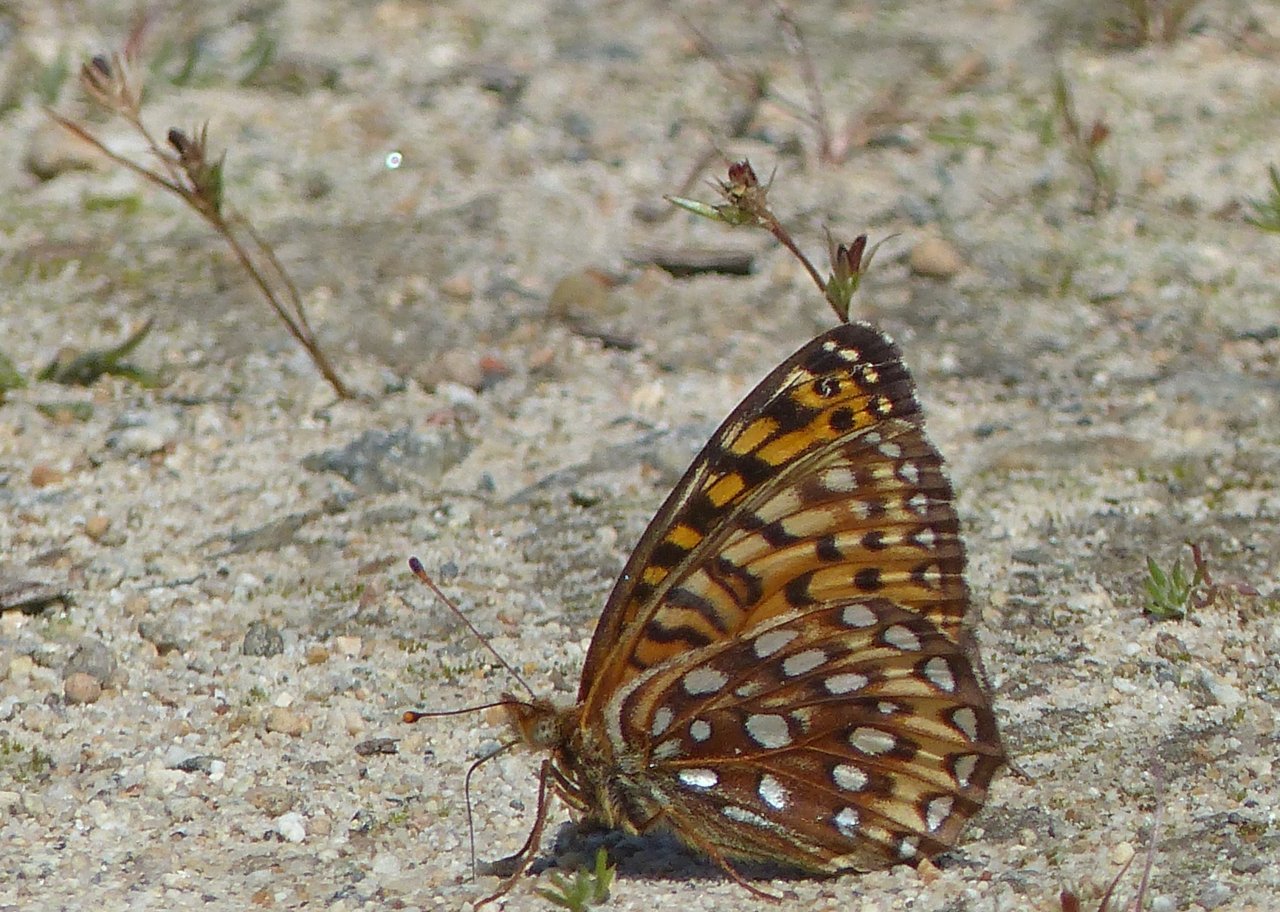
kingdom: Animalia
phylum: Arthropoda
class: Insecta
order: Lepidoptera
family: Nymphalidae
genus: Speyeria
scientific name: Speyeria atlantis
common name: Atlantis Fritillary
